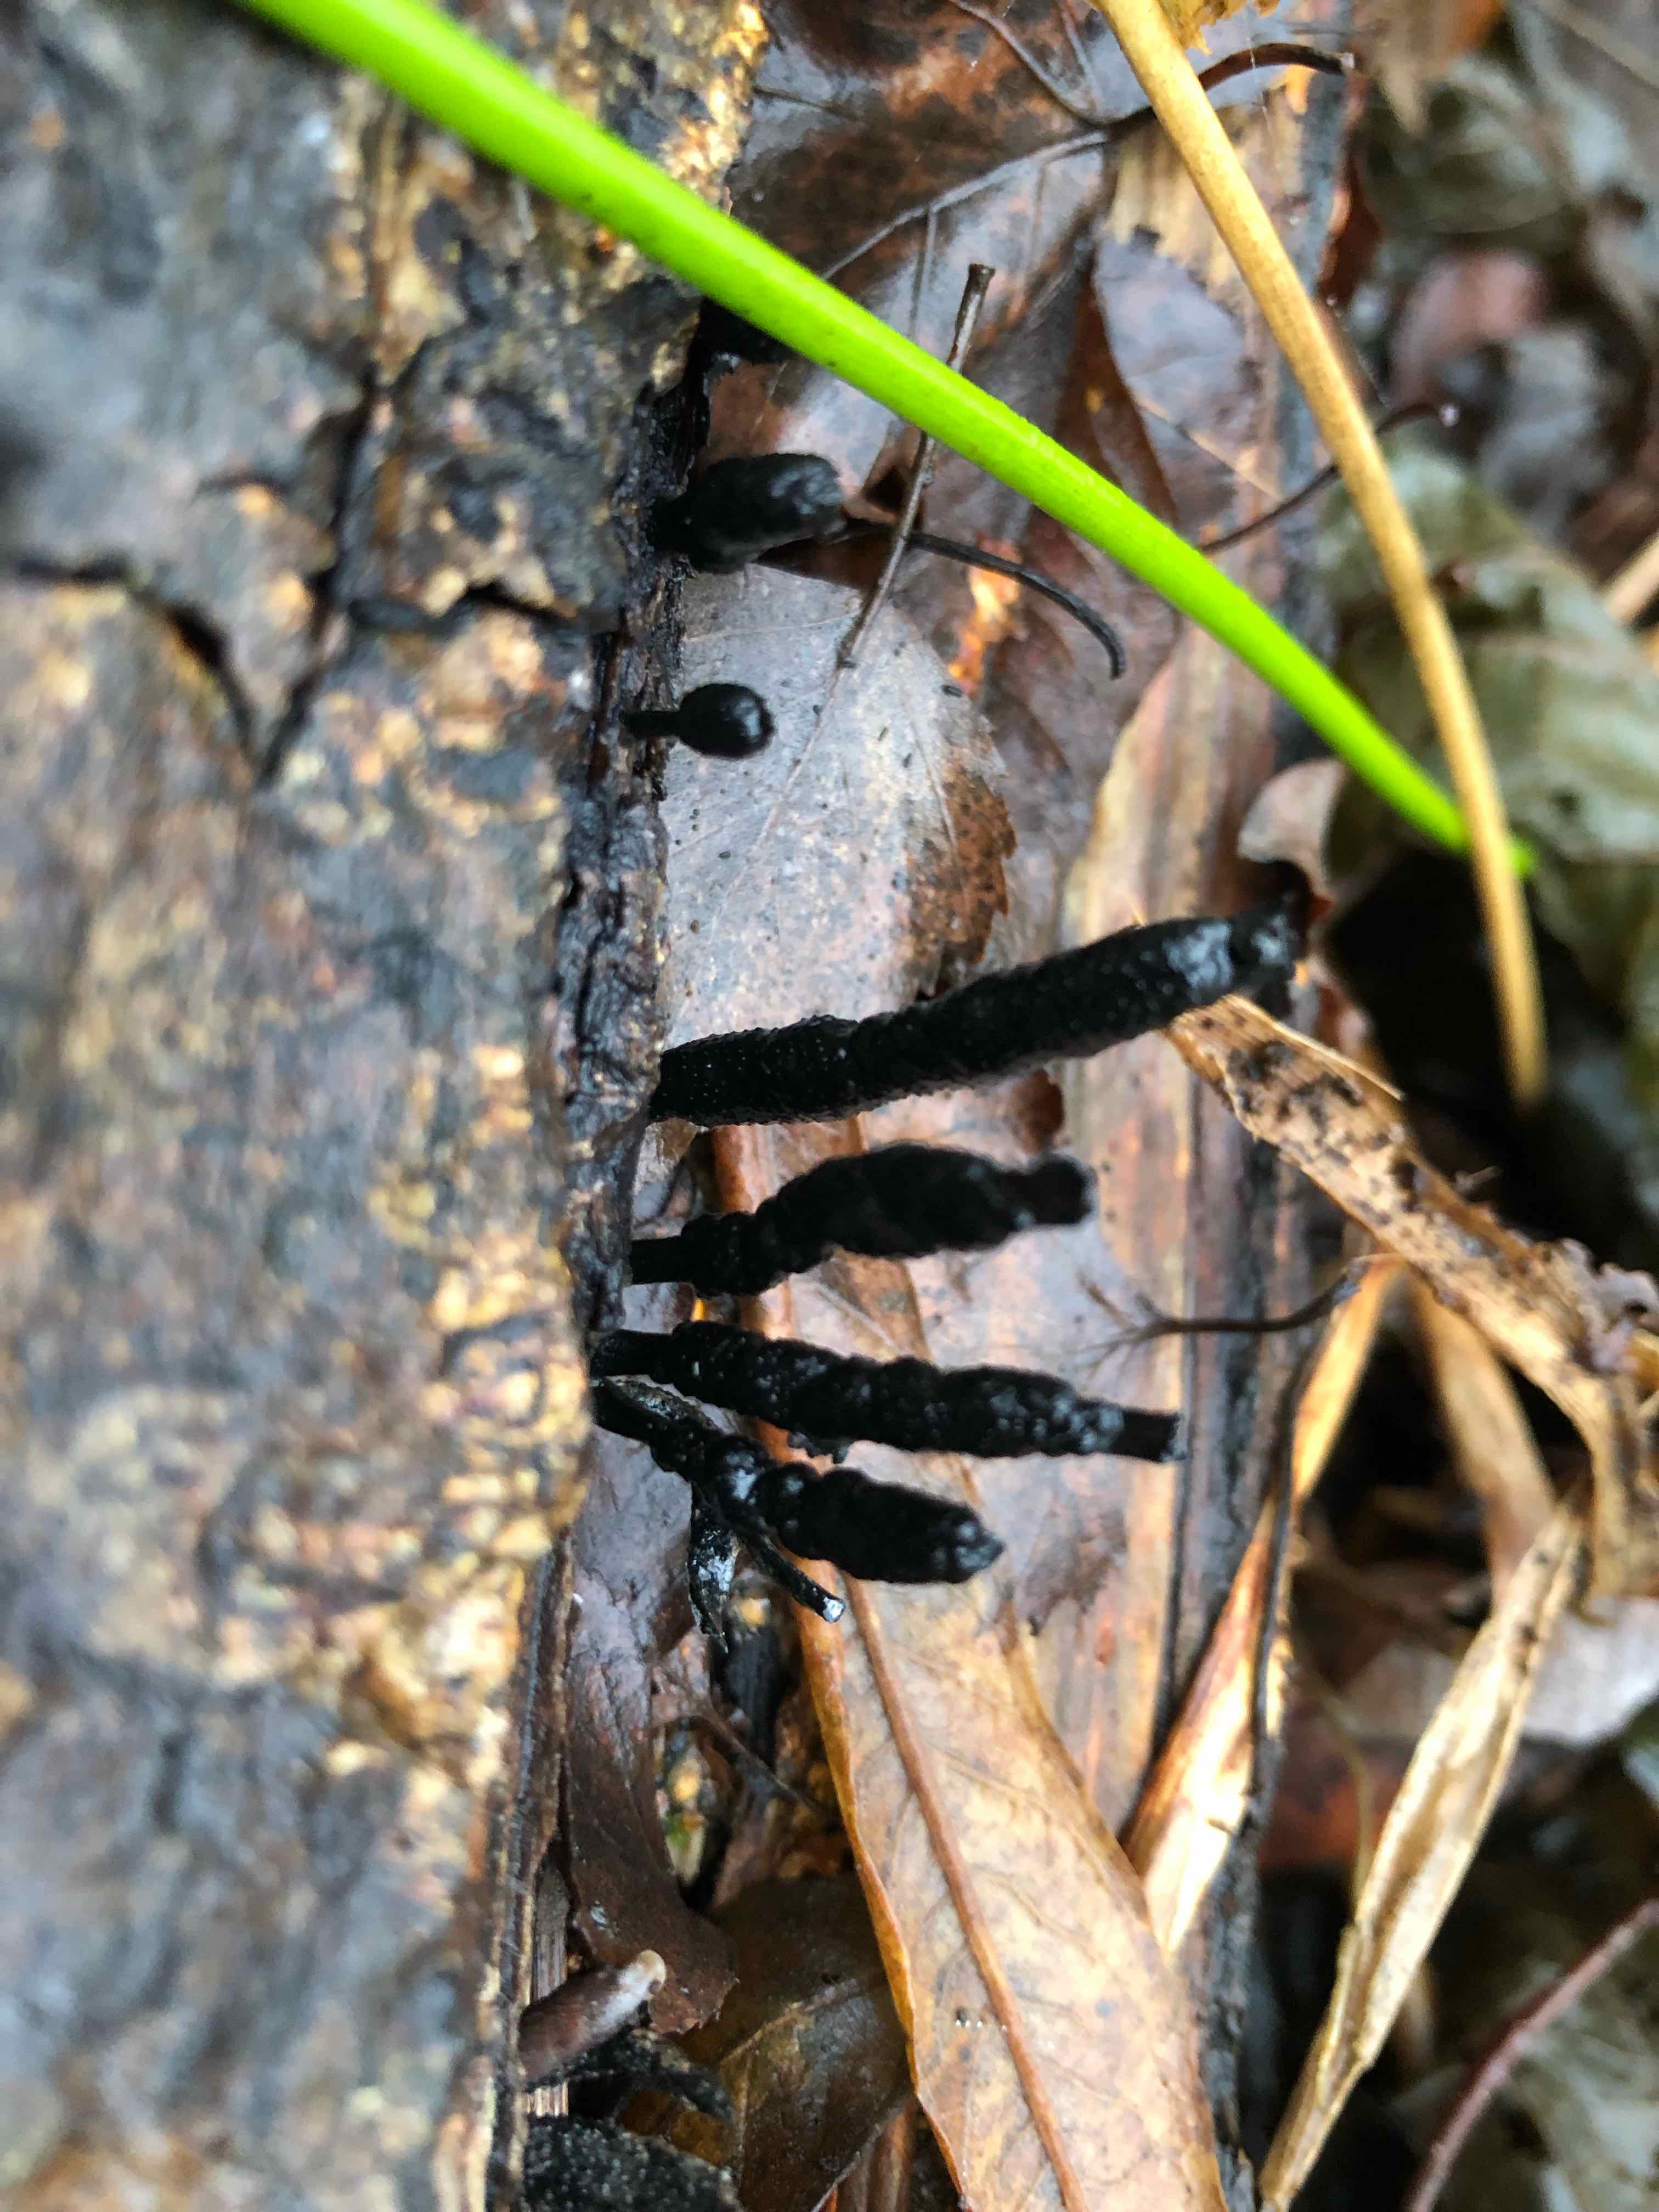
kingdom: Fungi
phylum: Ascomycota
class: Sordariomycetes
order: Xylariales
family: Xylariaceae
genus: Xylaria
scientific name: Xylaria longipes
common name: slank stødsvamp
